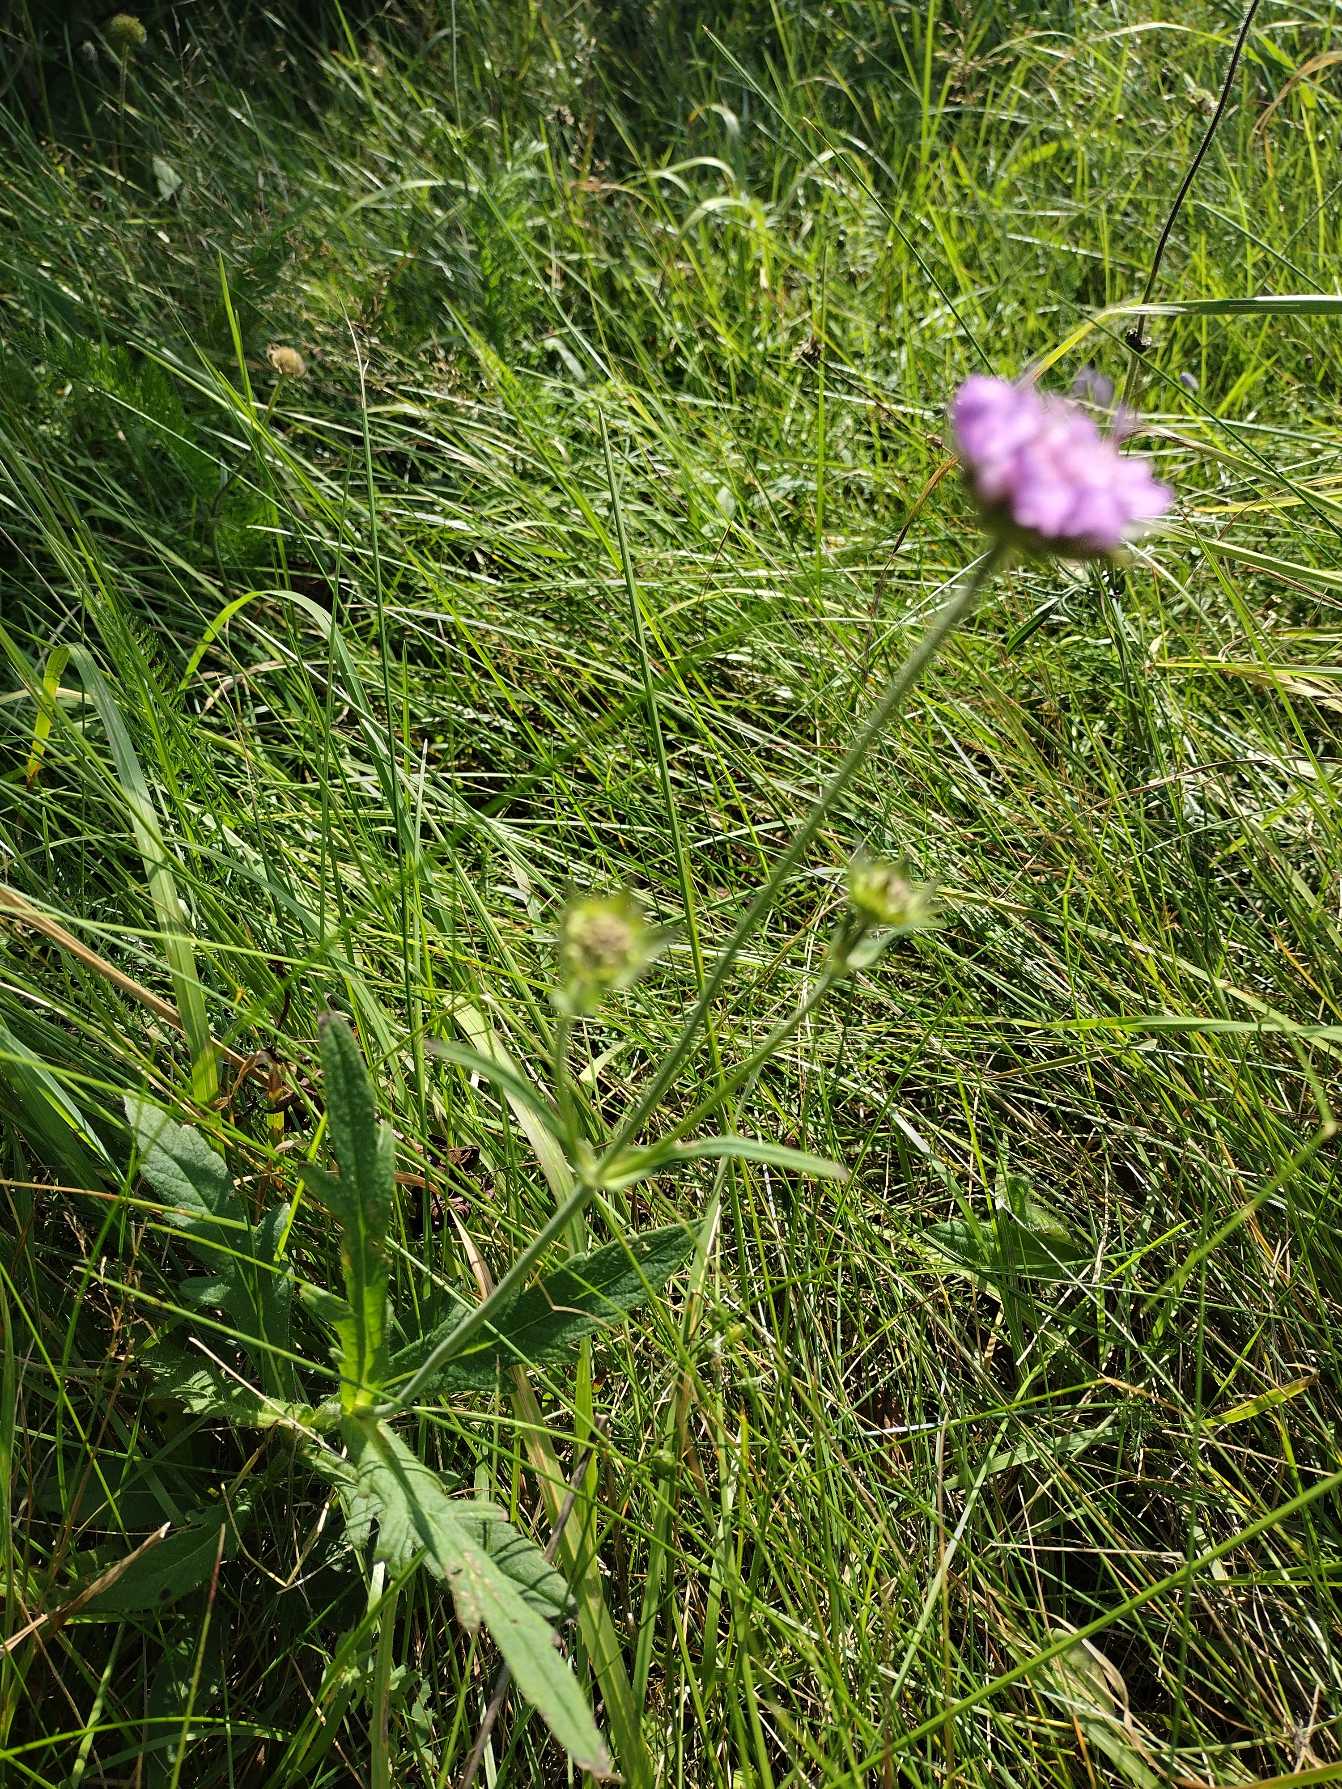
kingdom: Plantae
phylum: Tracheophyta
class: Magnoliopsida
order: Dipsacales
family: Caprifoliaceae
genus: Knautia
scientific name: Knautia arvensis
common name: Blåhat
